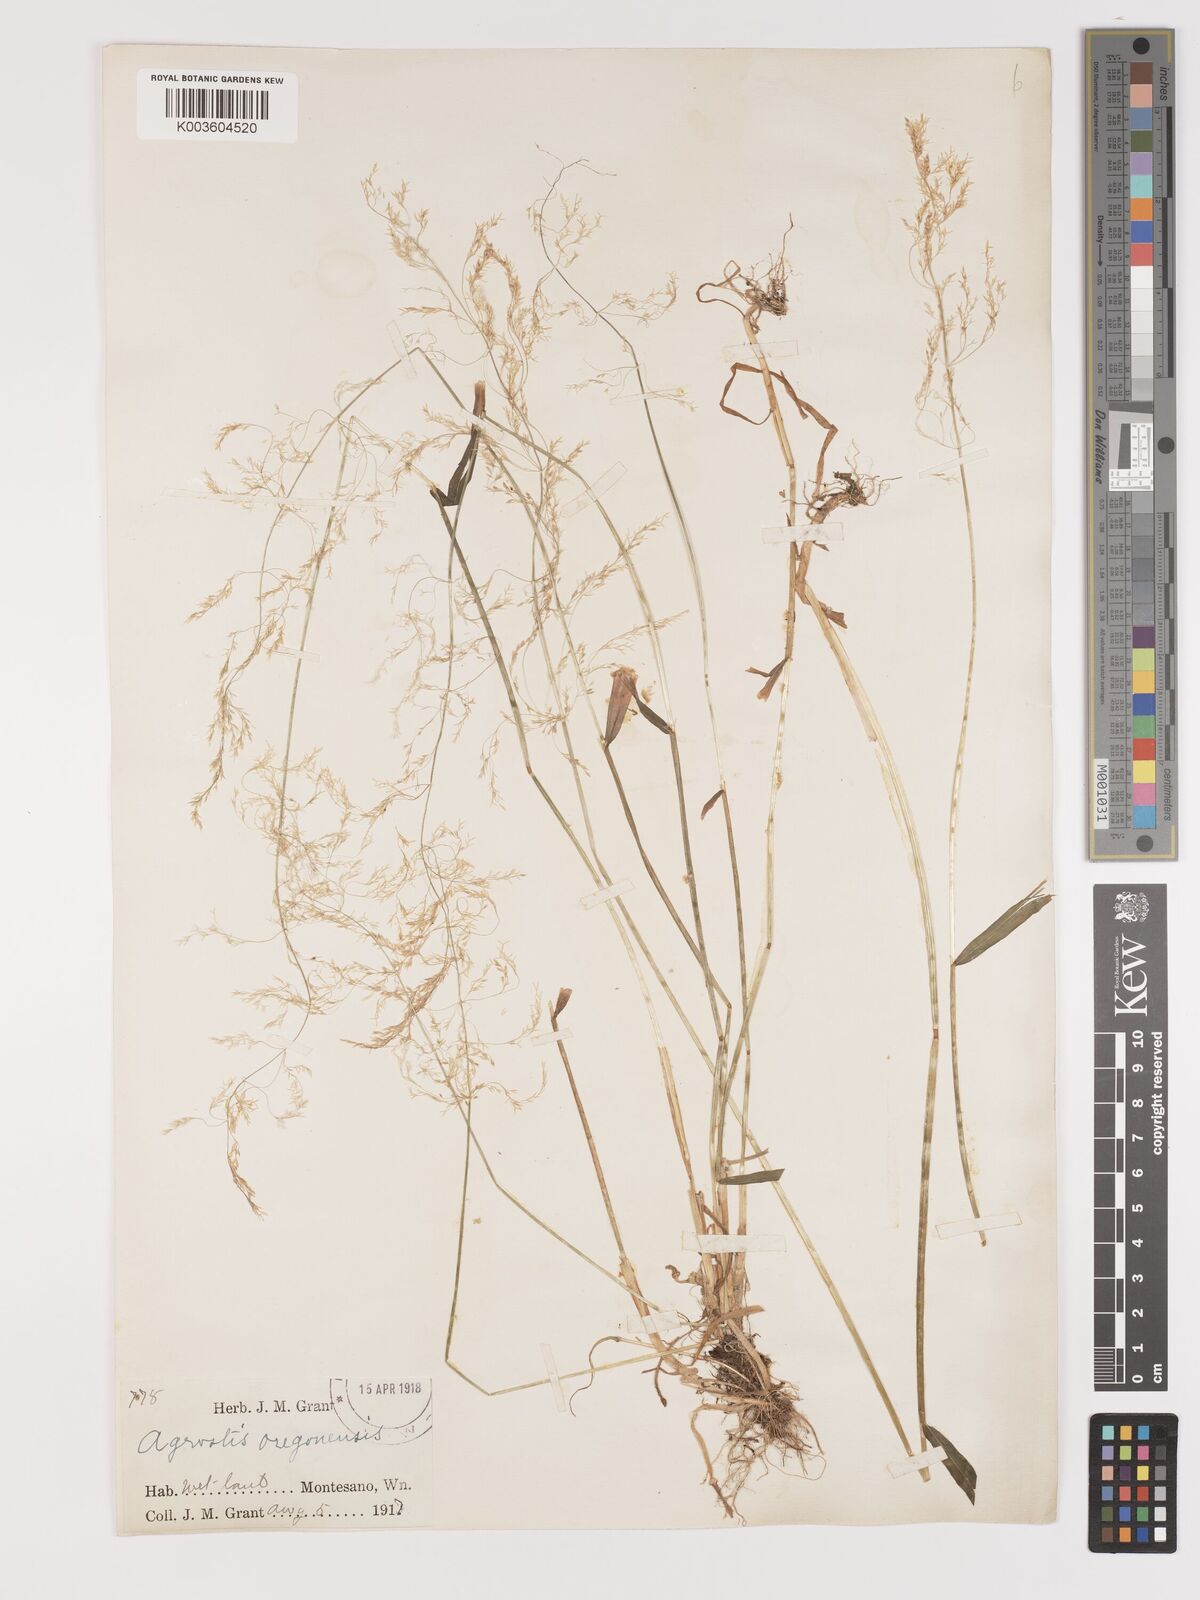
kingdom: Plantae
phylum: Tracheophyta
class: Liliopsida
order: Poales
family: Poaceae
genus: Agrostis
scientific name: Agrostis hyemalis
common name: Small bent
